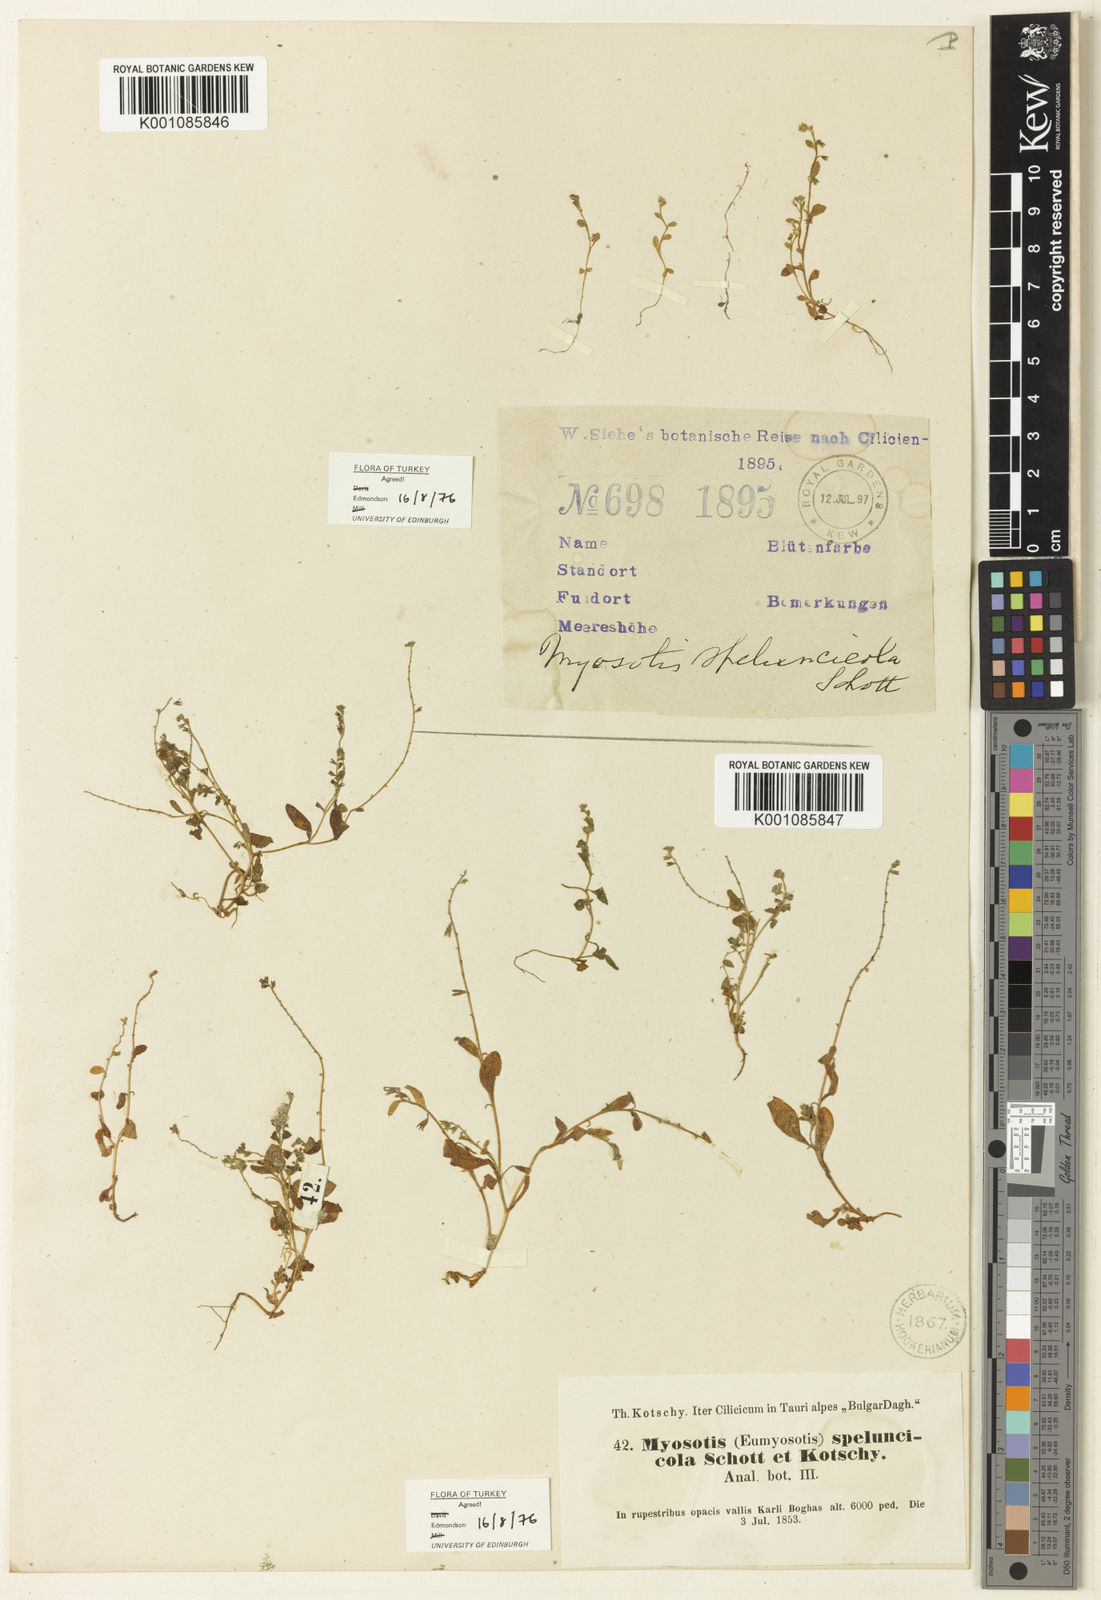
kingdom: Plantae
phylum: Tracheophyta
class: Magnoliopsida
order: Boraginales
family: Boraginaceae
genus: Myosotis
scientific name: Myosotis verna
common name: Early forget-me-not
